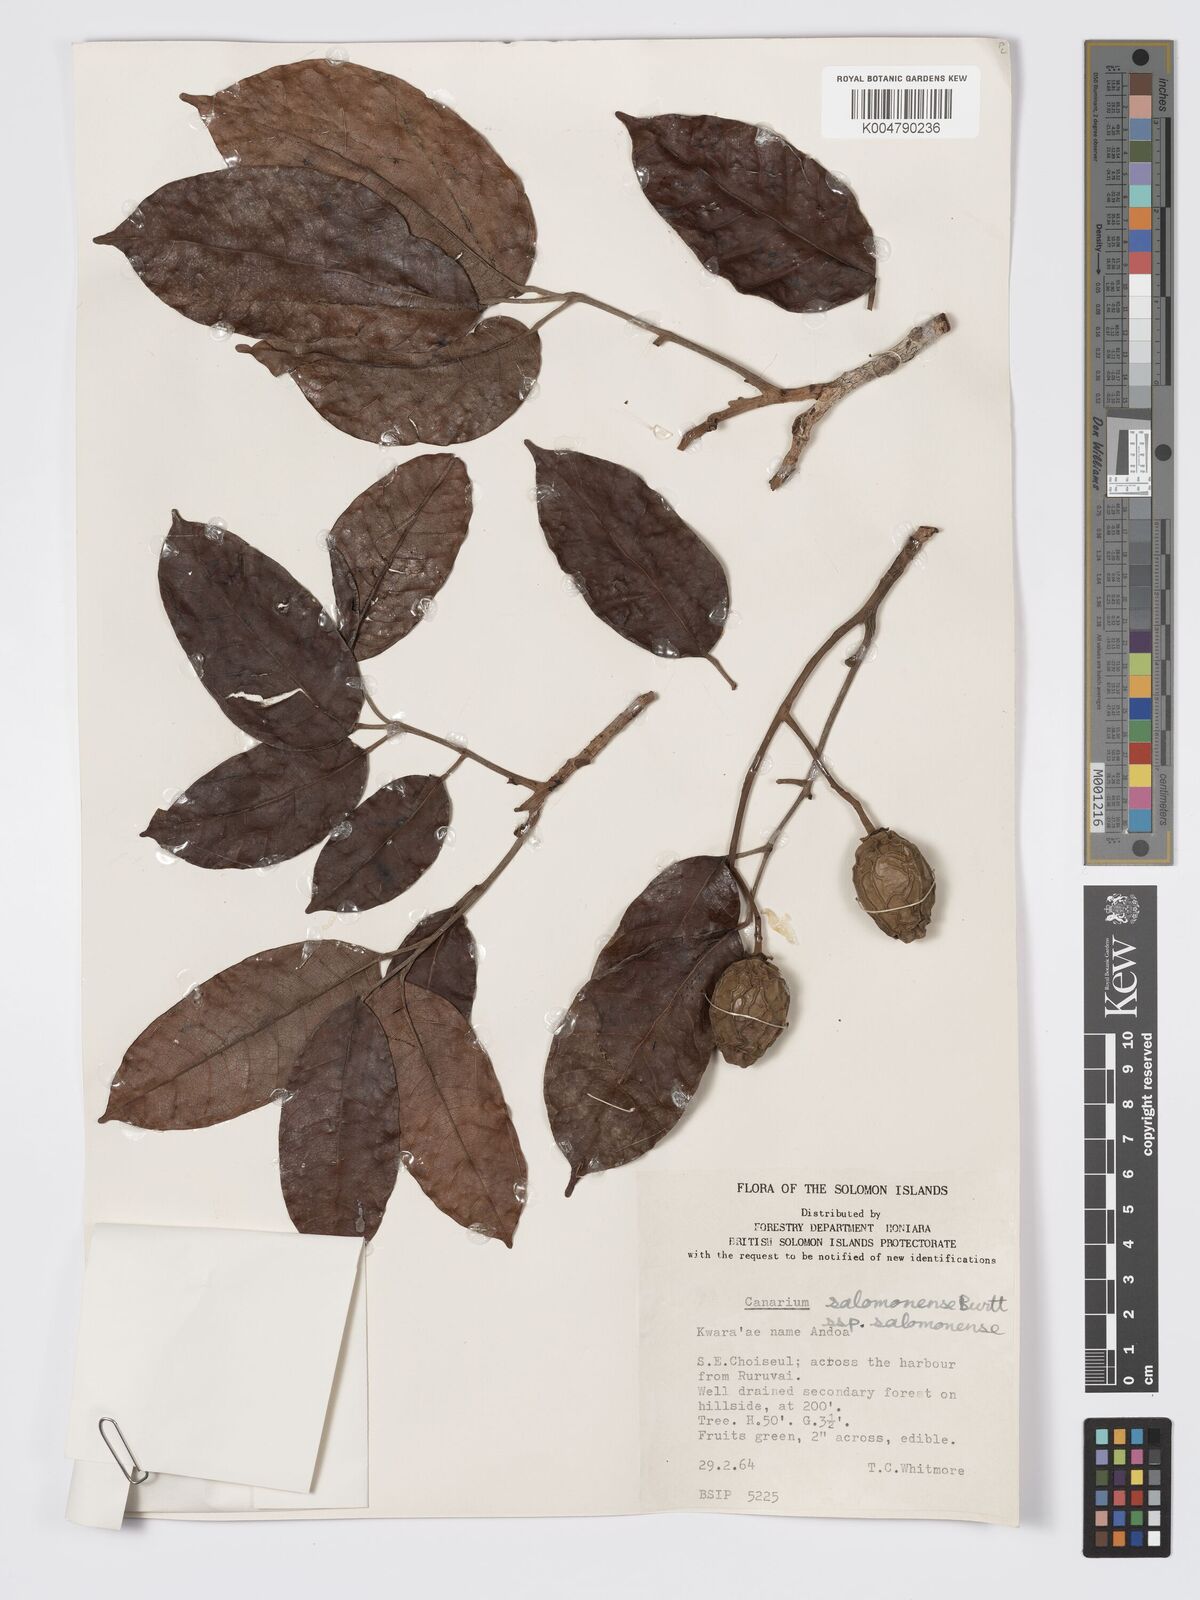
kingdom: Plantae
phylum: Tracheophyta
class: Magnoliopsida
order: Sapindales
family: Burseraceae
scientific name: Burseraceae
